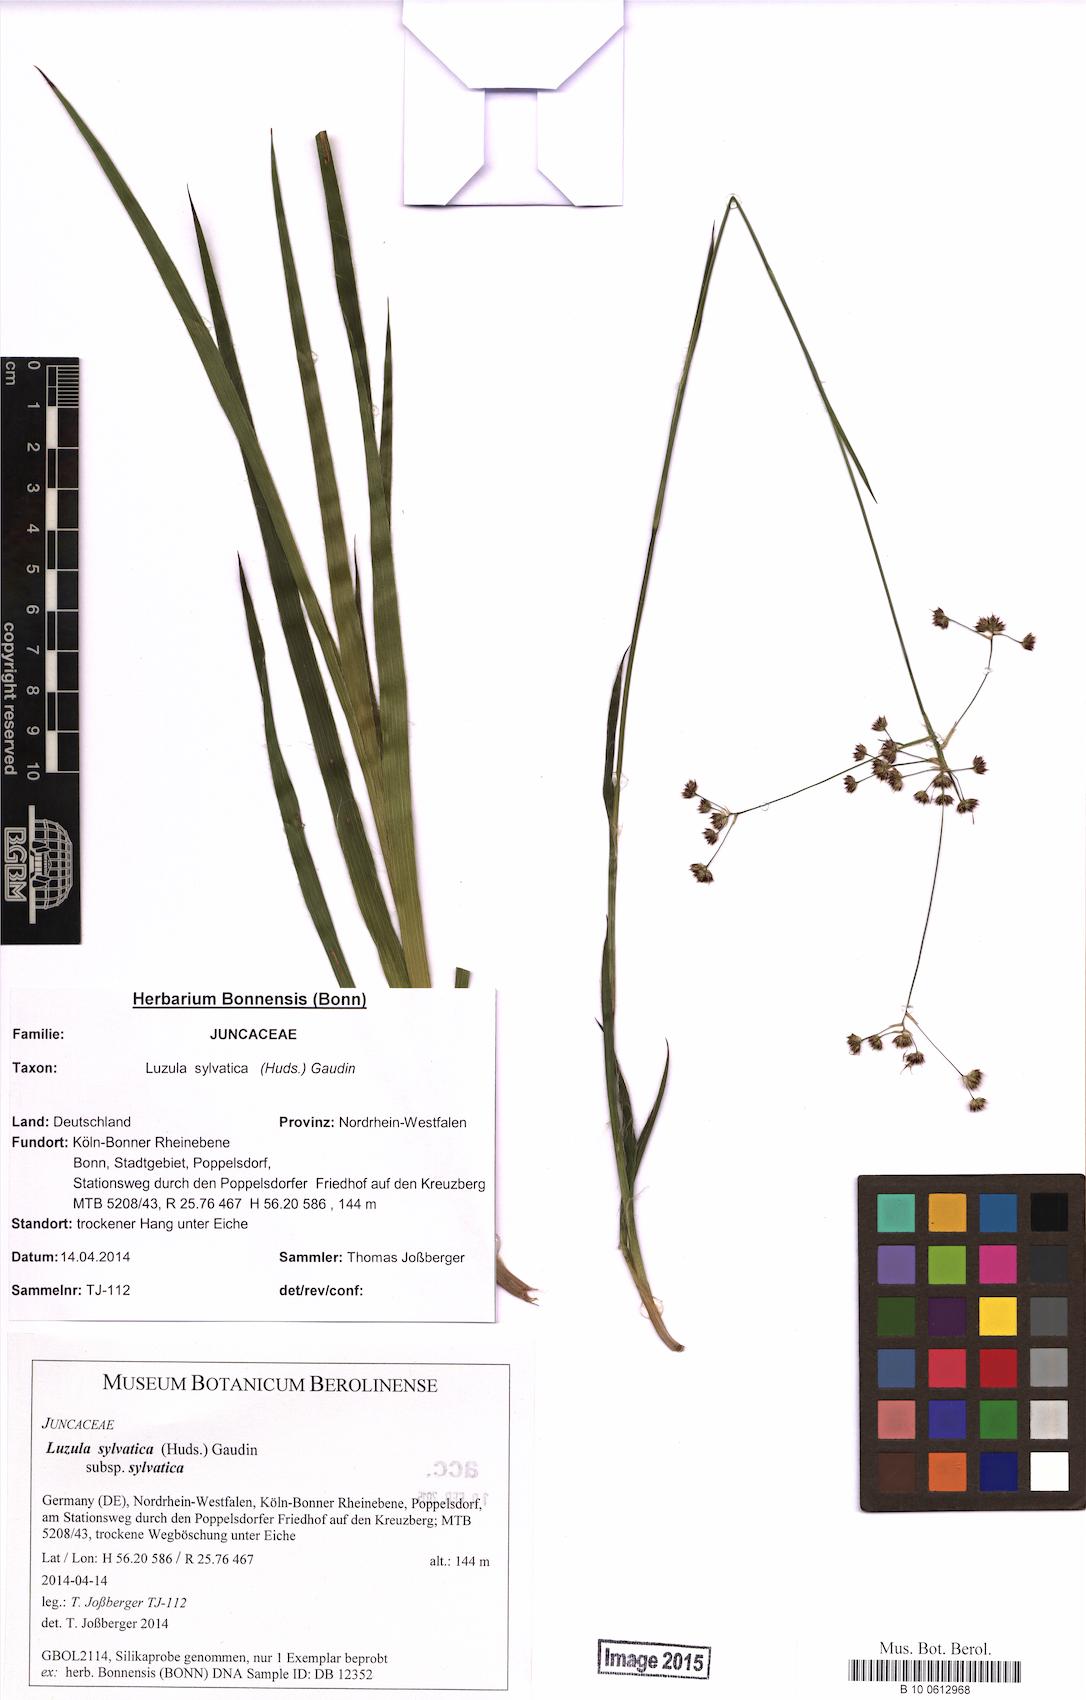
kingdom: Plantae
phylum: Tracheophyta
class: Liliopsida
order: Poales
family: Juncaceae
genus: Luzula
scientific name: Luzula sylvatica
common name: Great wood-rush
